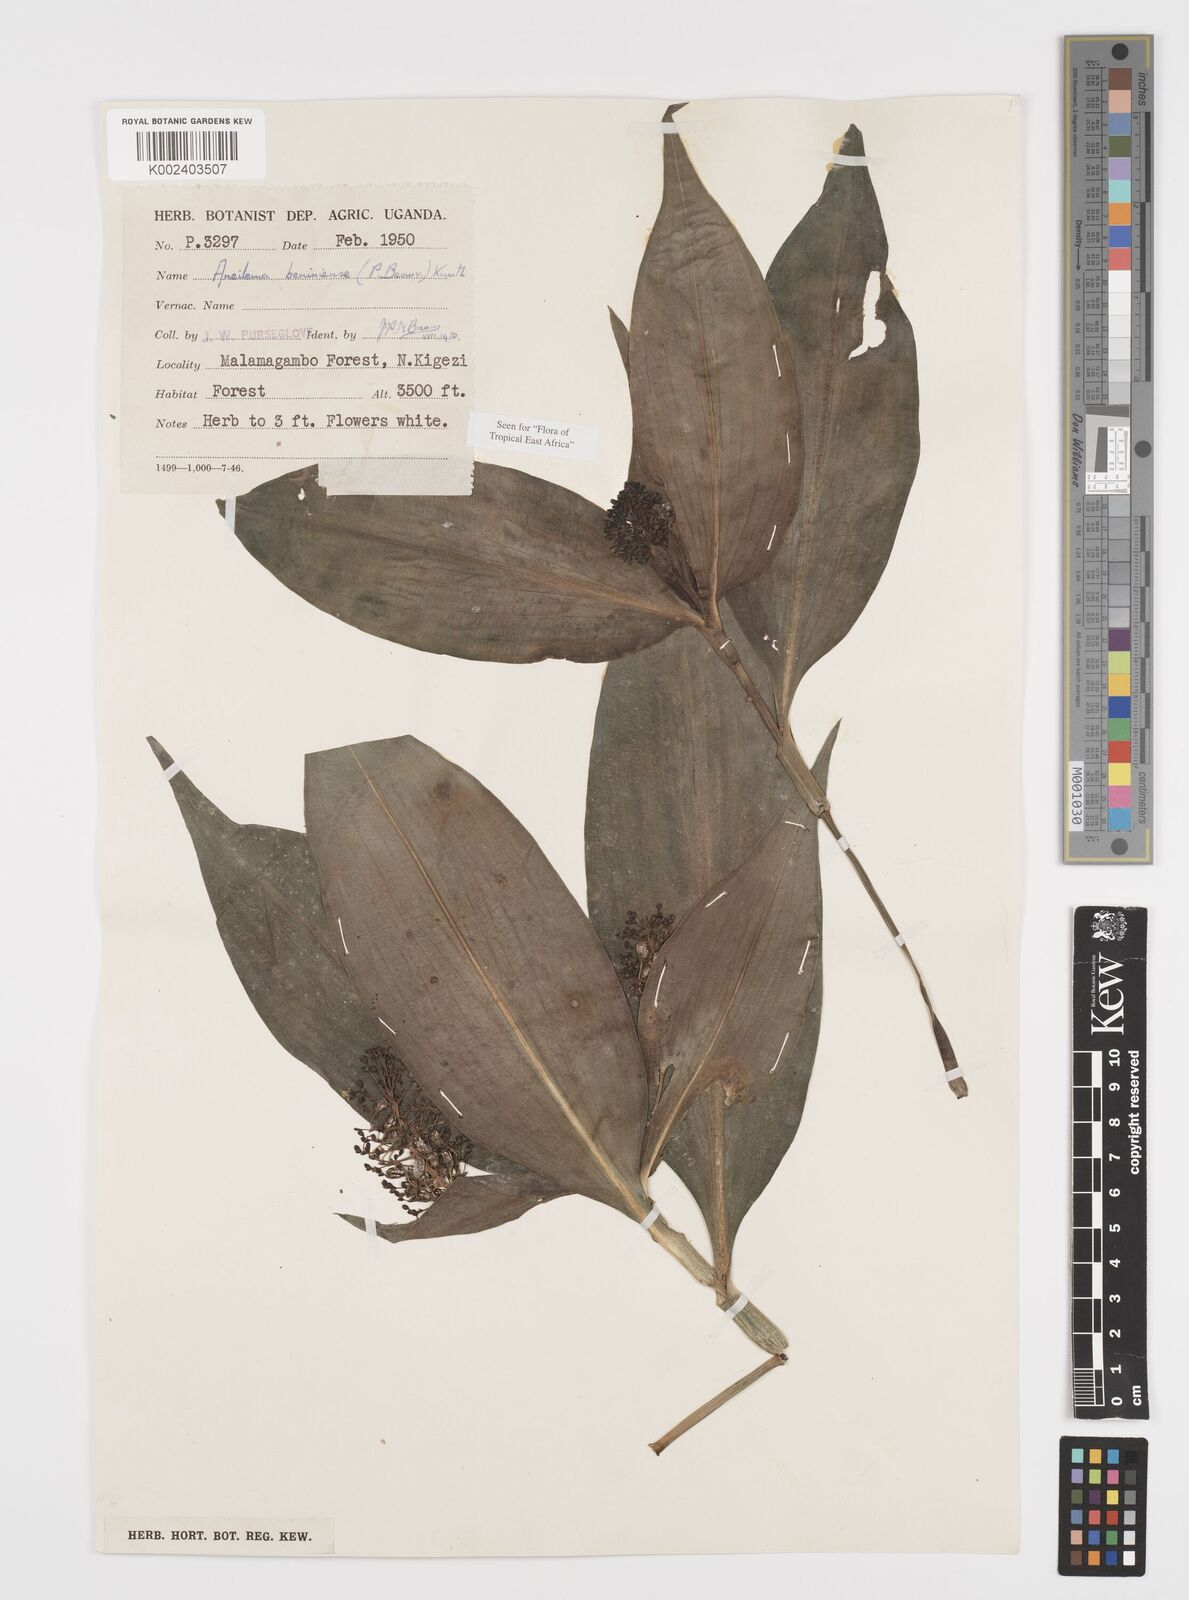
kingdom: Plantae
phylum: Tracheophyta
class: Liliopsida
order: Commelinales
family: Commelinaceae
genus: Aneilema
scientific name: Aneilema beniniense
